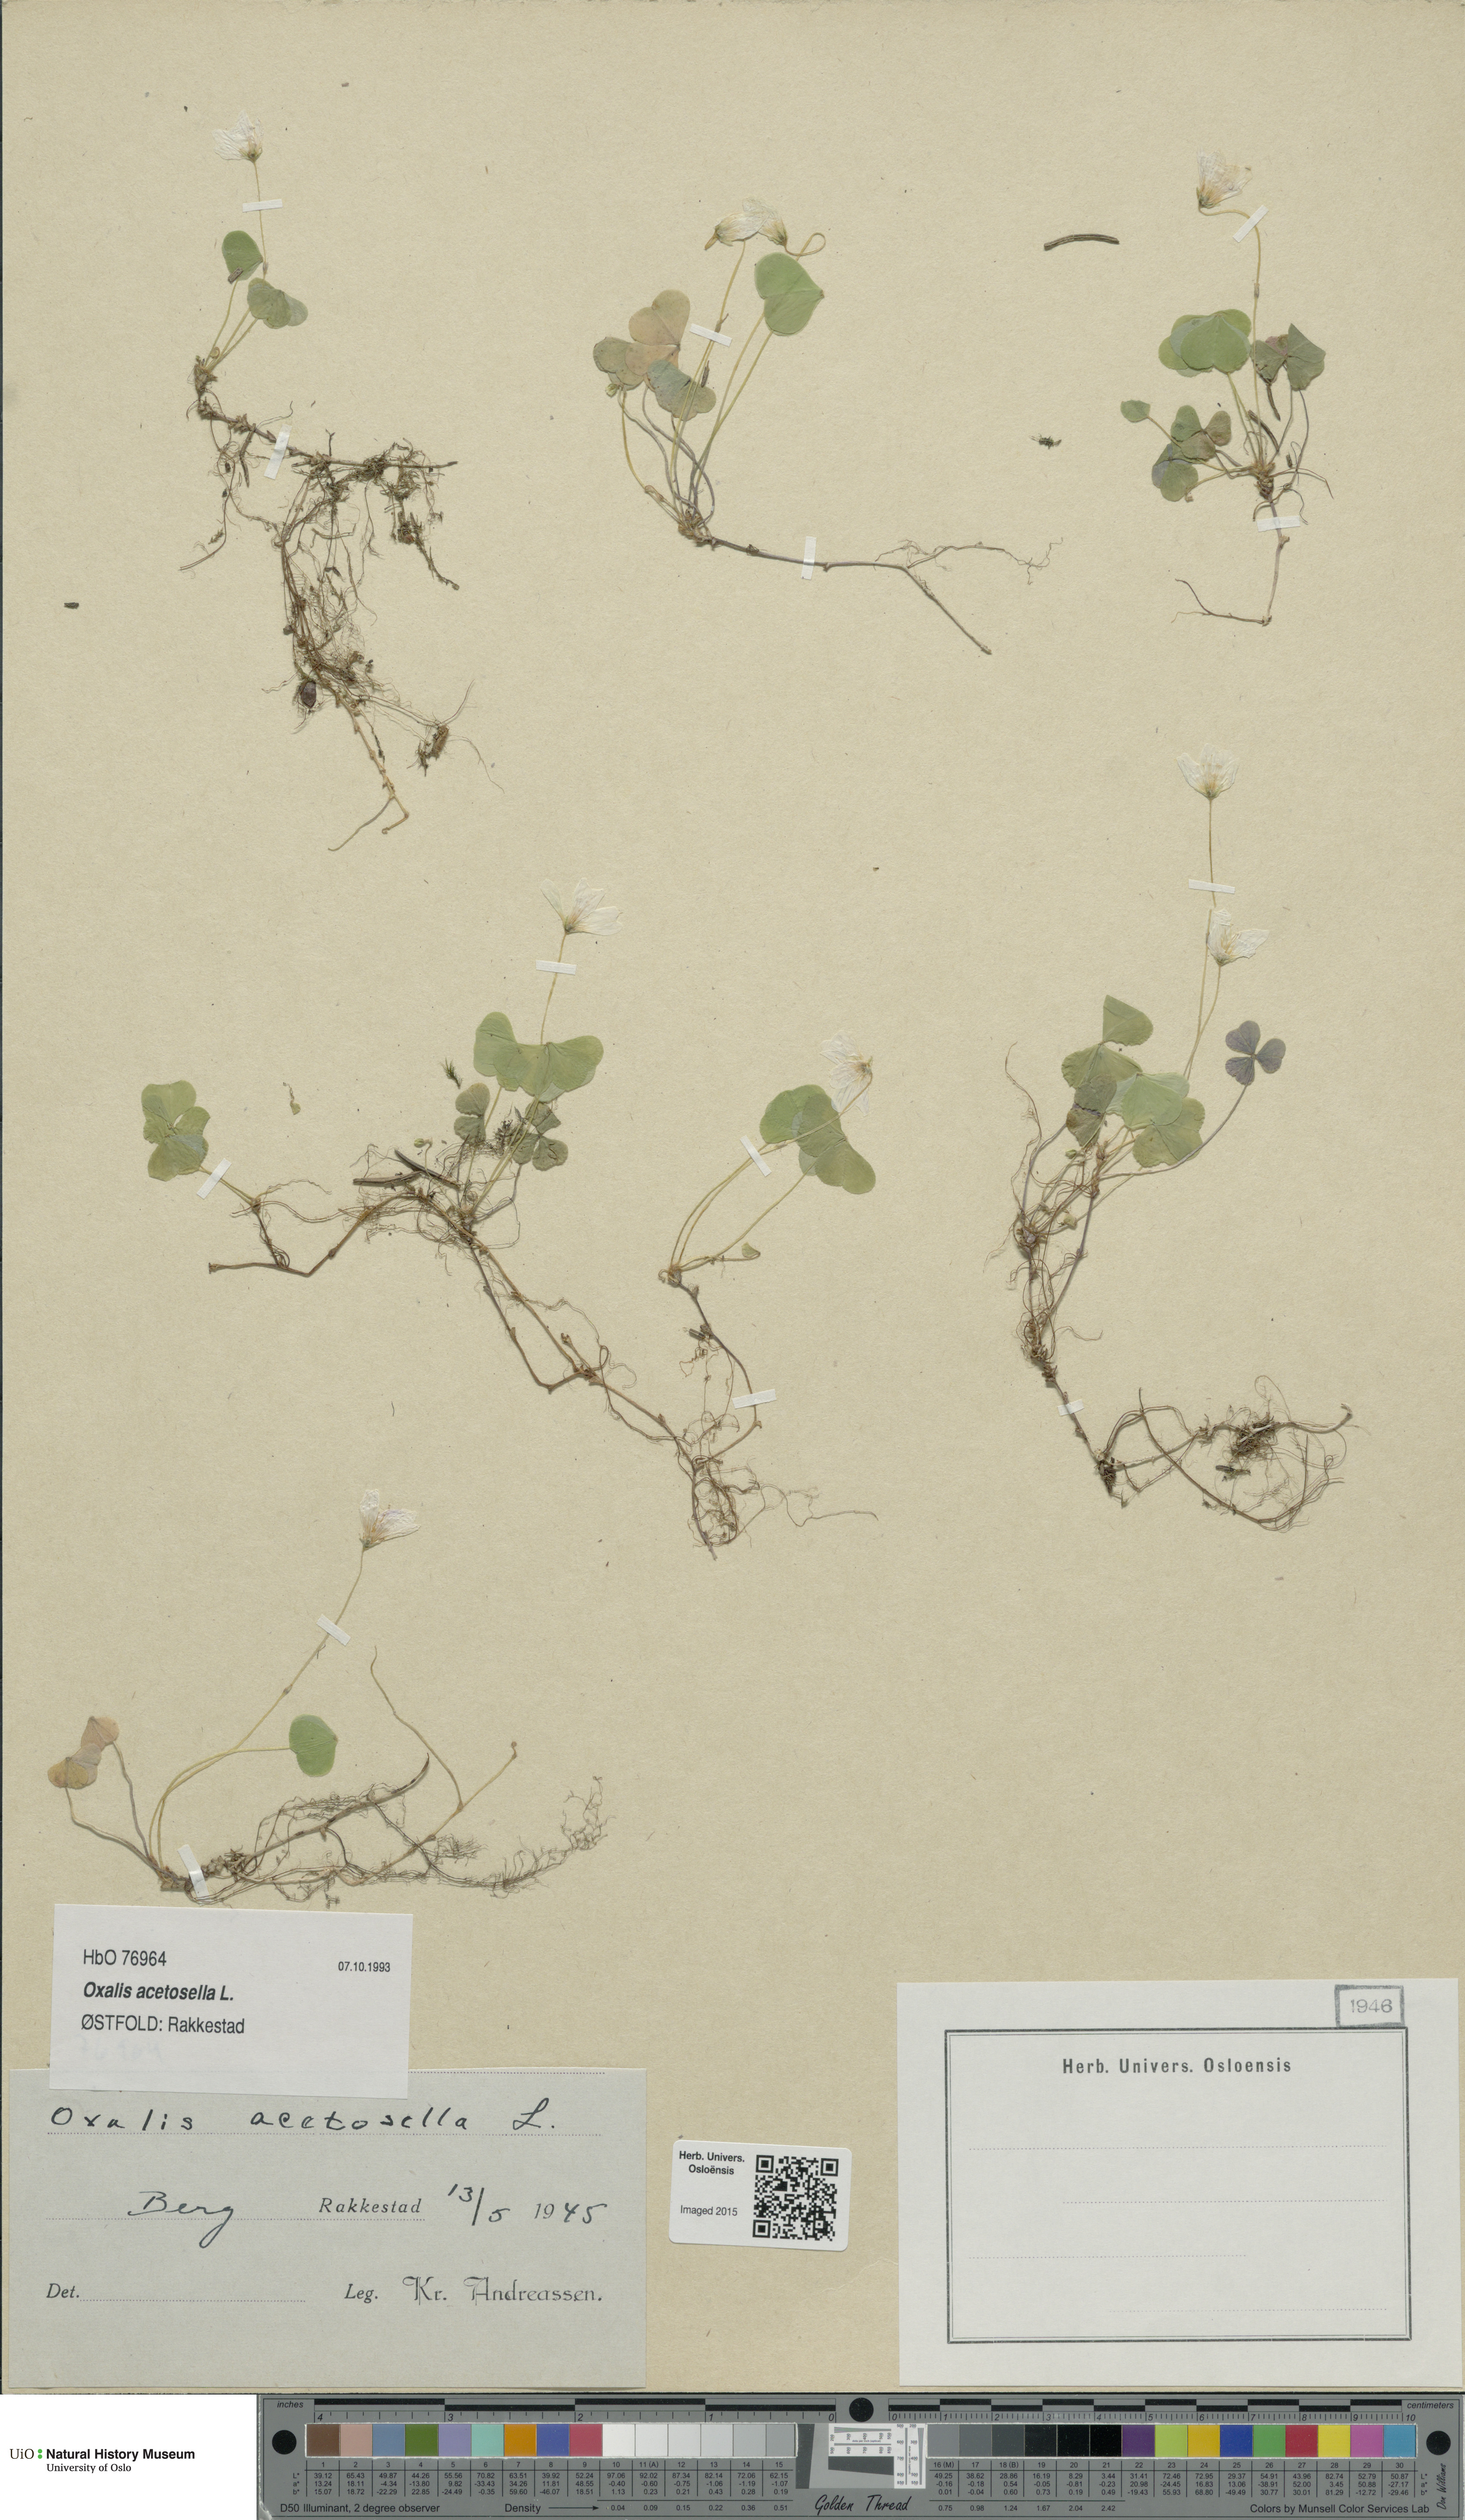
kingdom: Plantae
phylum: Tracheophyta
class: Magnoliopsida
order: Oxalidales
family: Oxalidaceae
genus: Oxalis
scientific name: Oxalis acetosella
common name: Wood-sorrel
